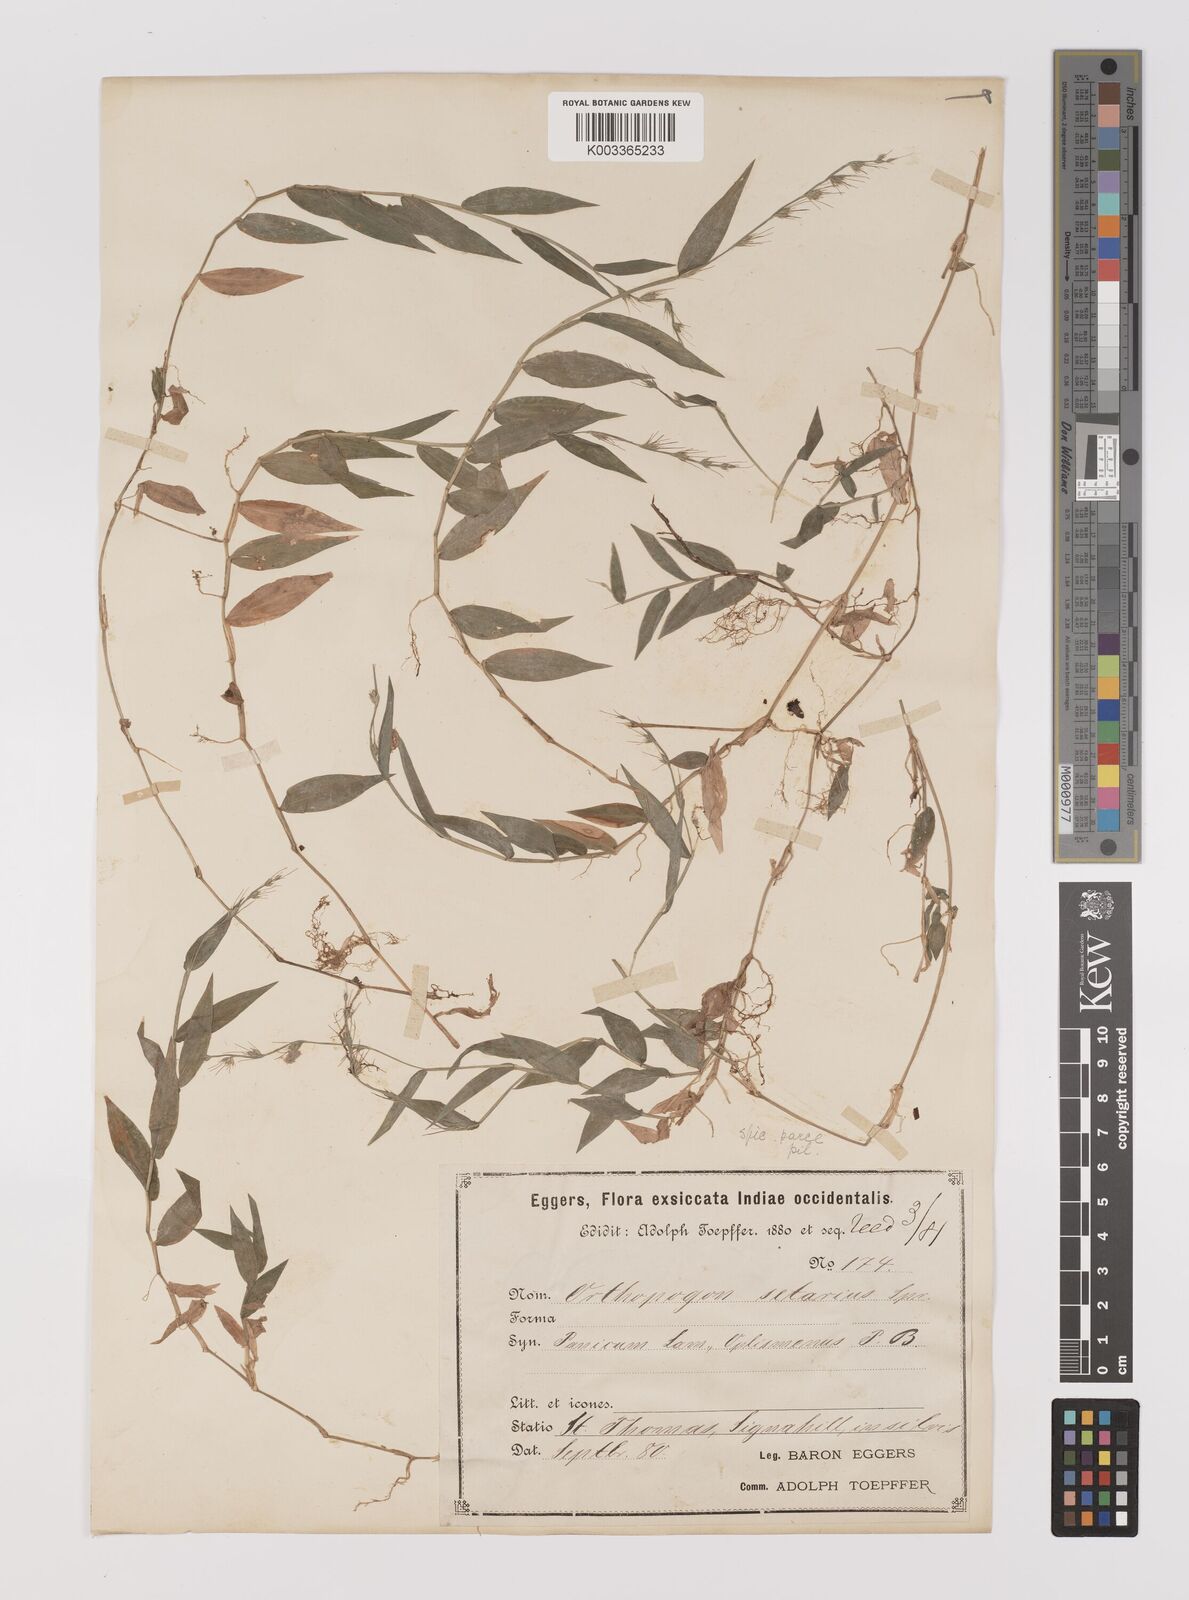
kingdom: Plantae
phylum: Tracheophyta
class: Liliopsida
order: Poales
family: Poaceae
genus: Oplismenus
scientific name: Oplismenus hirtellus
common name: Basketgrass
